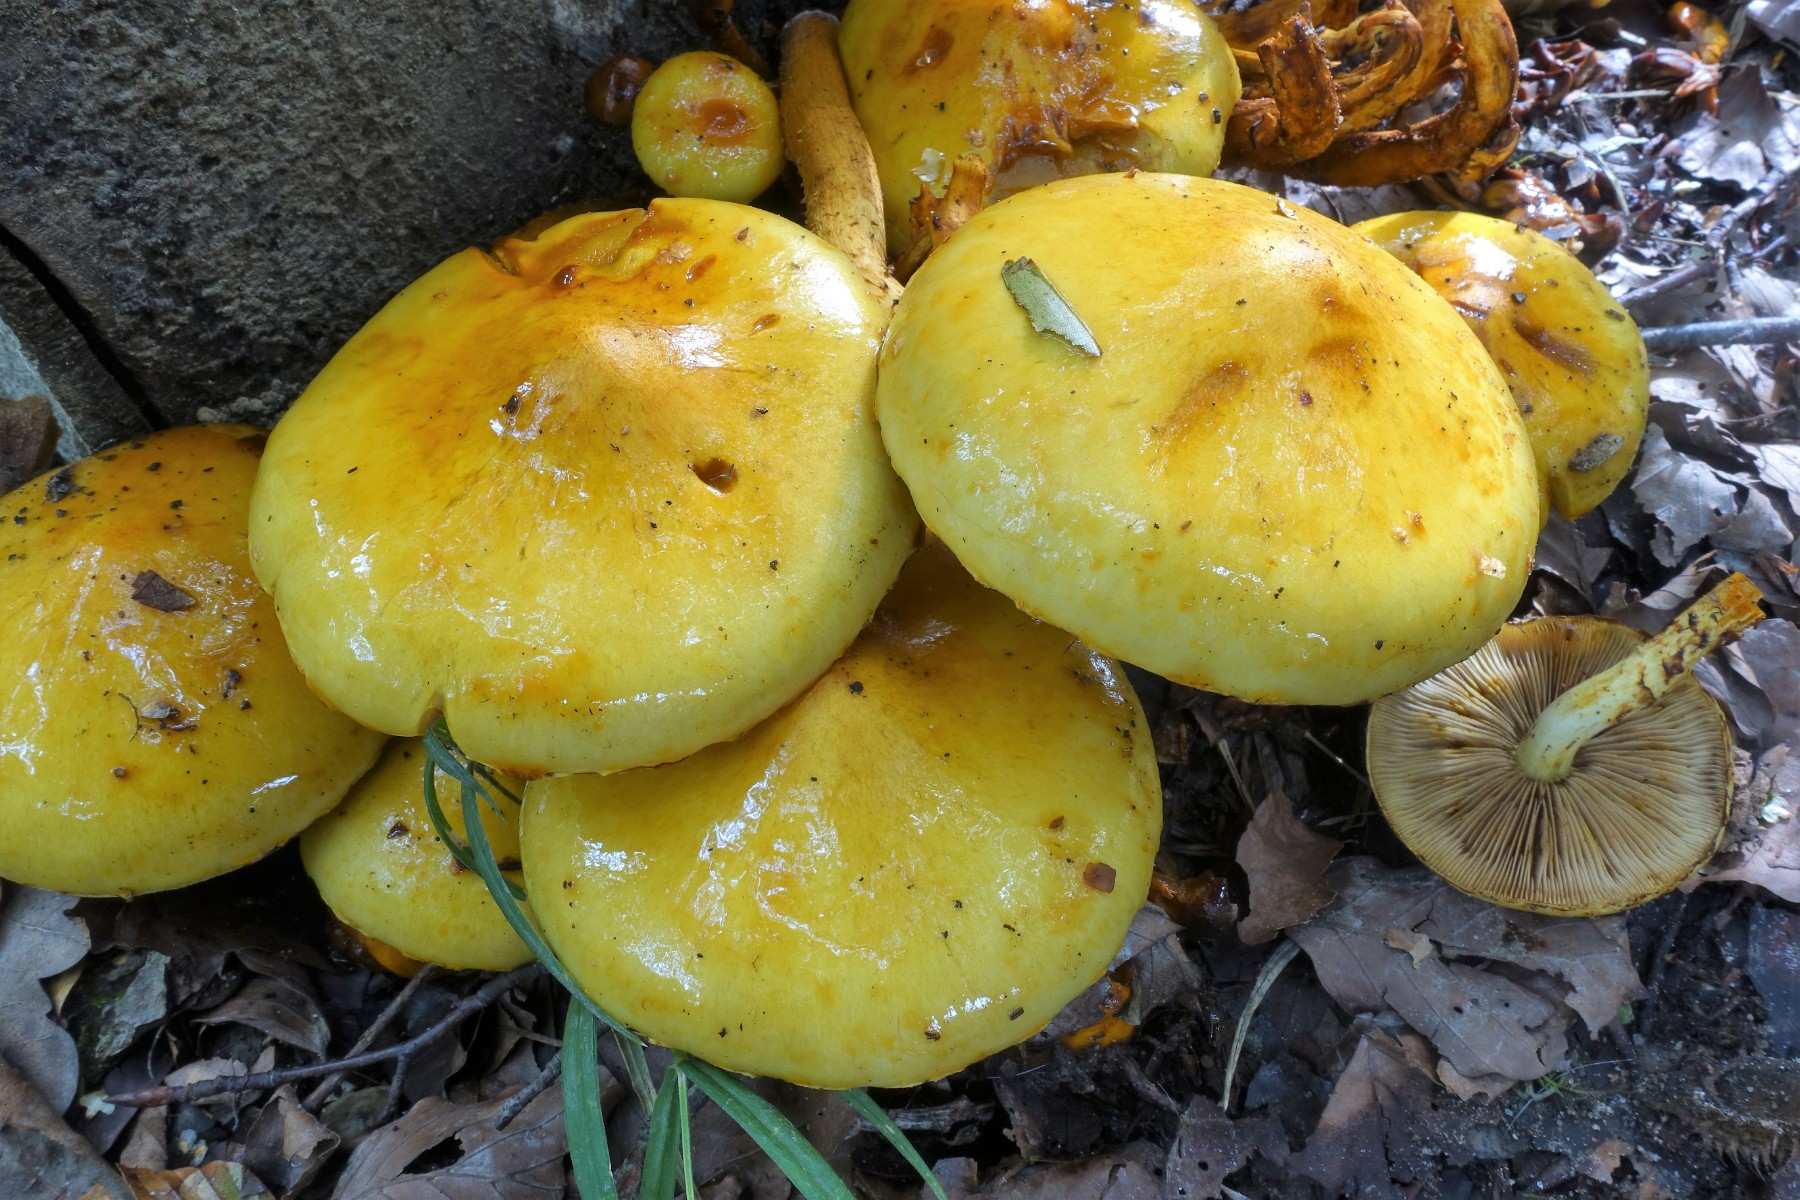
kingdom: Fungi
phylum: Basidiomycota
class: Agaricomycetes
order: Agaricales
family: Strophariaceae
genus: Pholiota
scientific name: Pholiota adiposa
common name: højtsiddende skælhat
